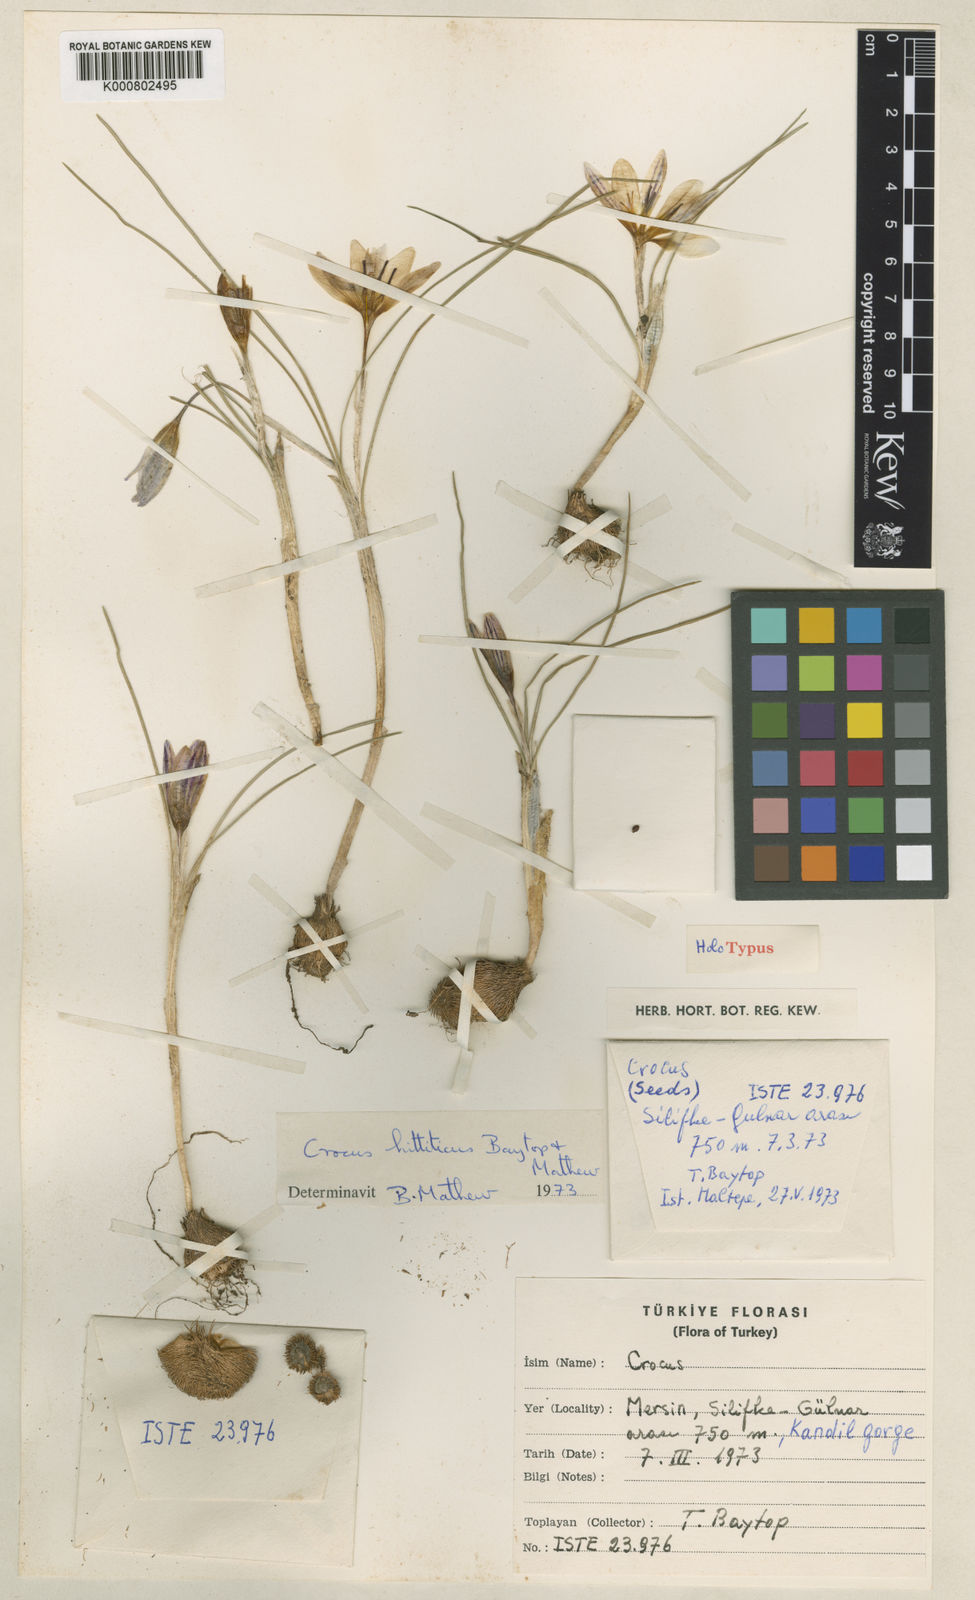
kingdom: Plantae
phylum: Tracheophyta
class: Liliopsida
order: Asparagales
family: Iridaceae
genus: Crocus
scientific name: Crocus hittiticus
